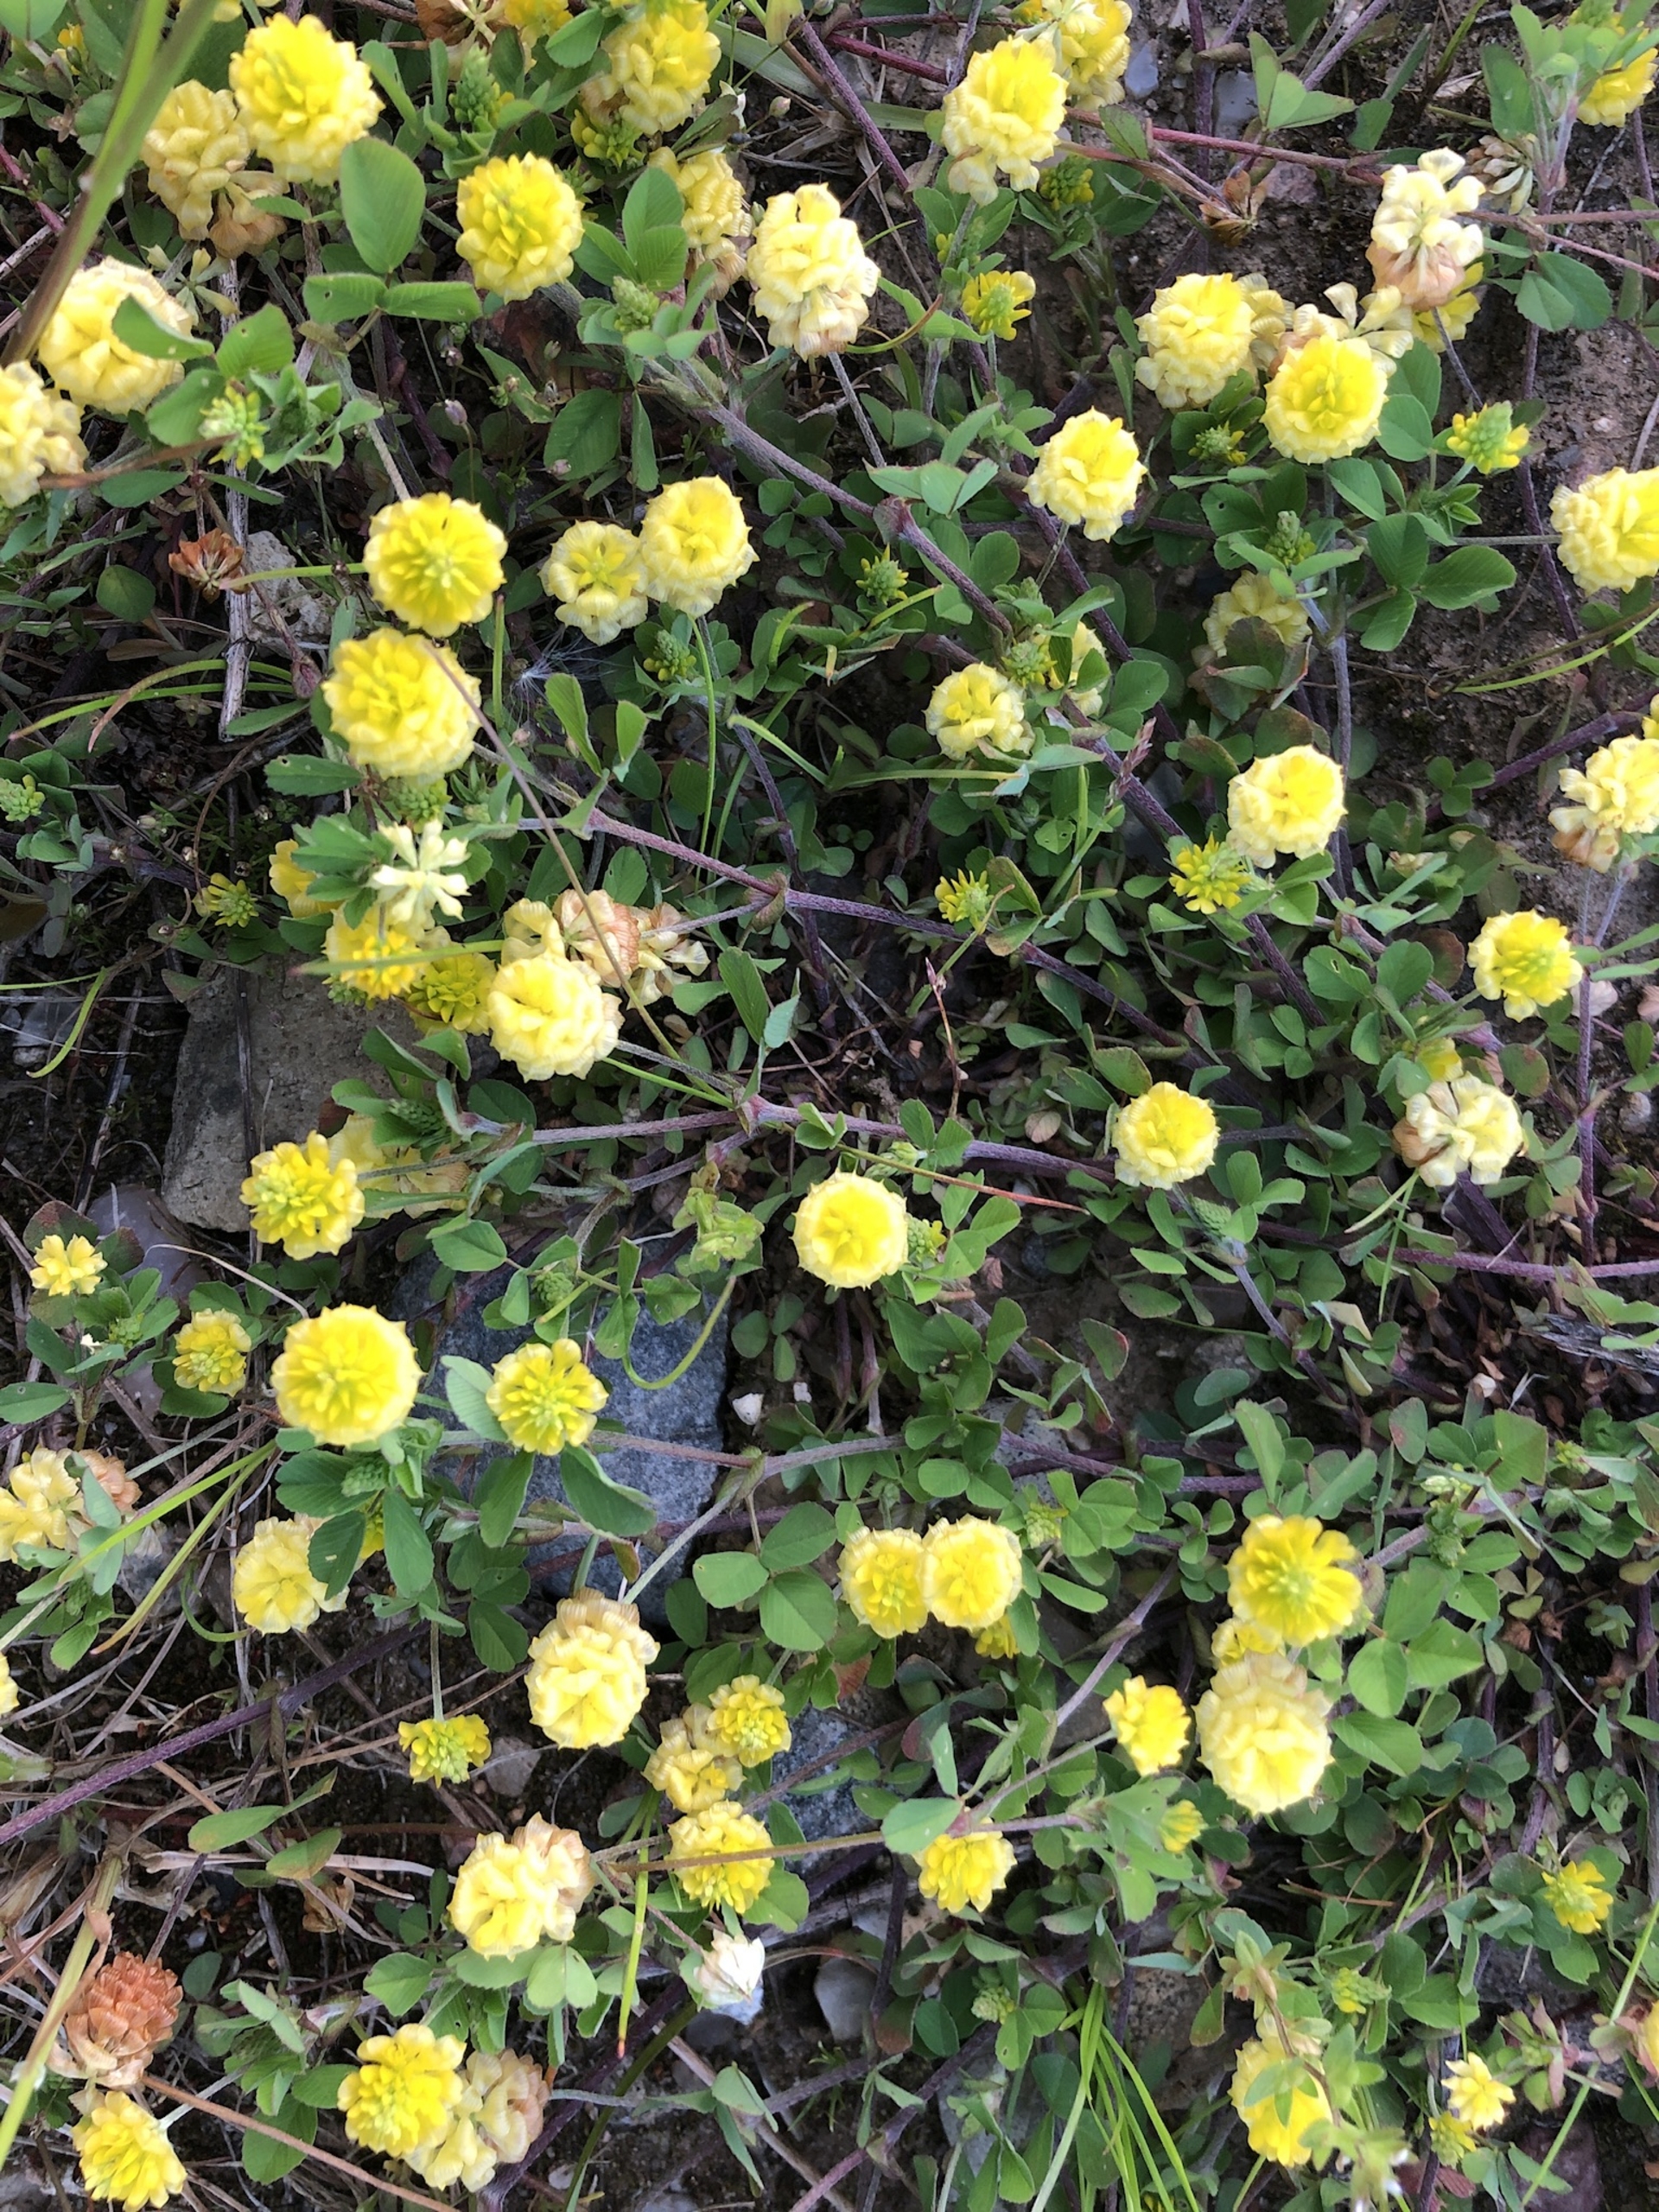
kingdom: Plantae
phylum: Tracheophyta
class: Magnoliopsida
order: Fabales
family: Fabaceae
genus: Trifolium
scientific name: Trifolium campestre
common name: Gul kløver
